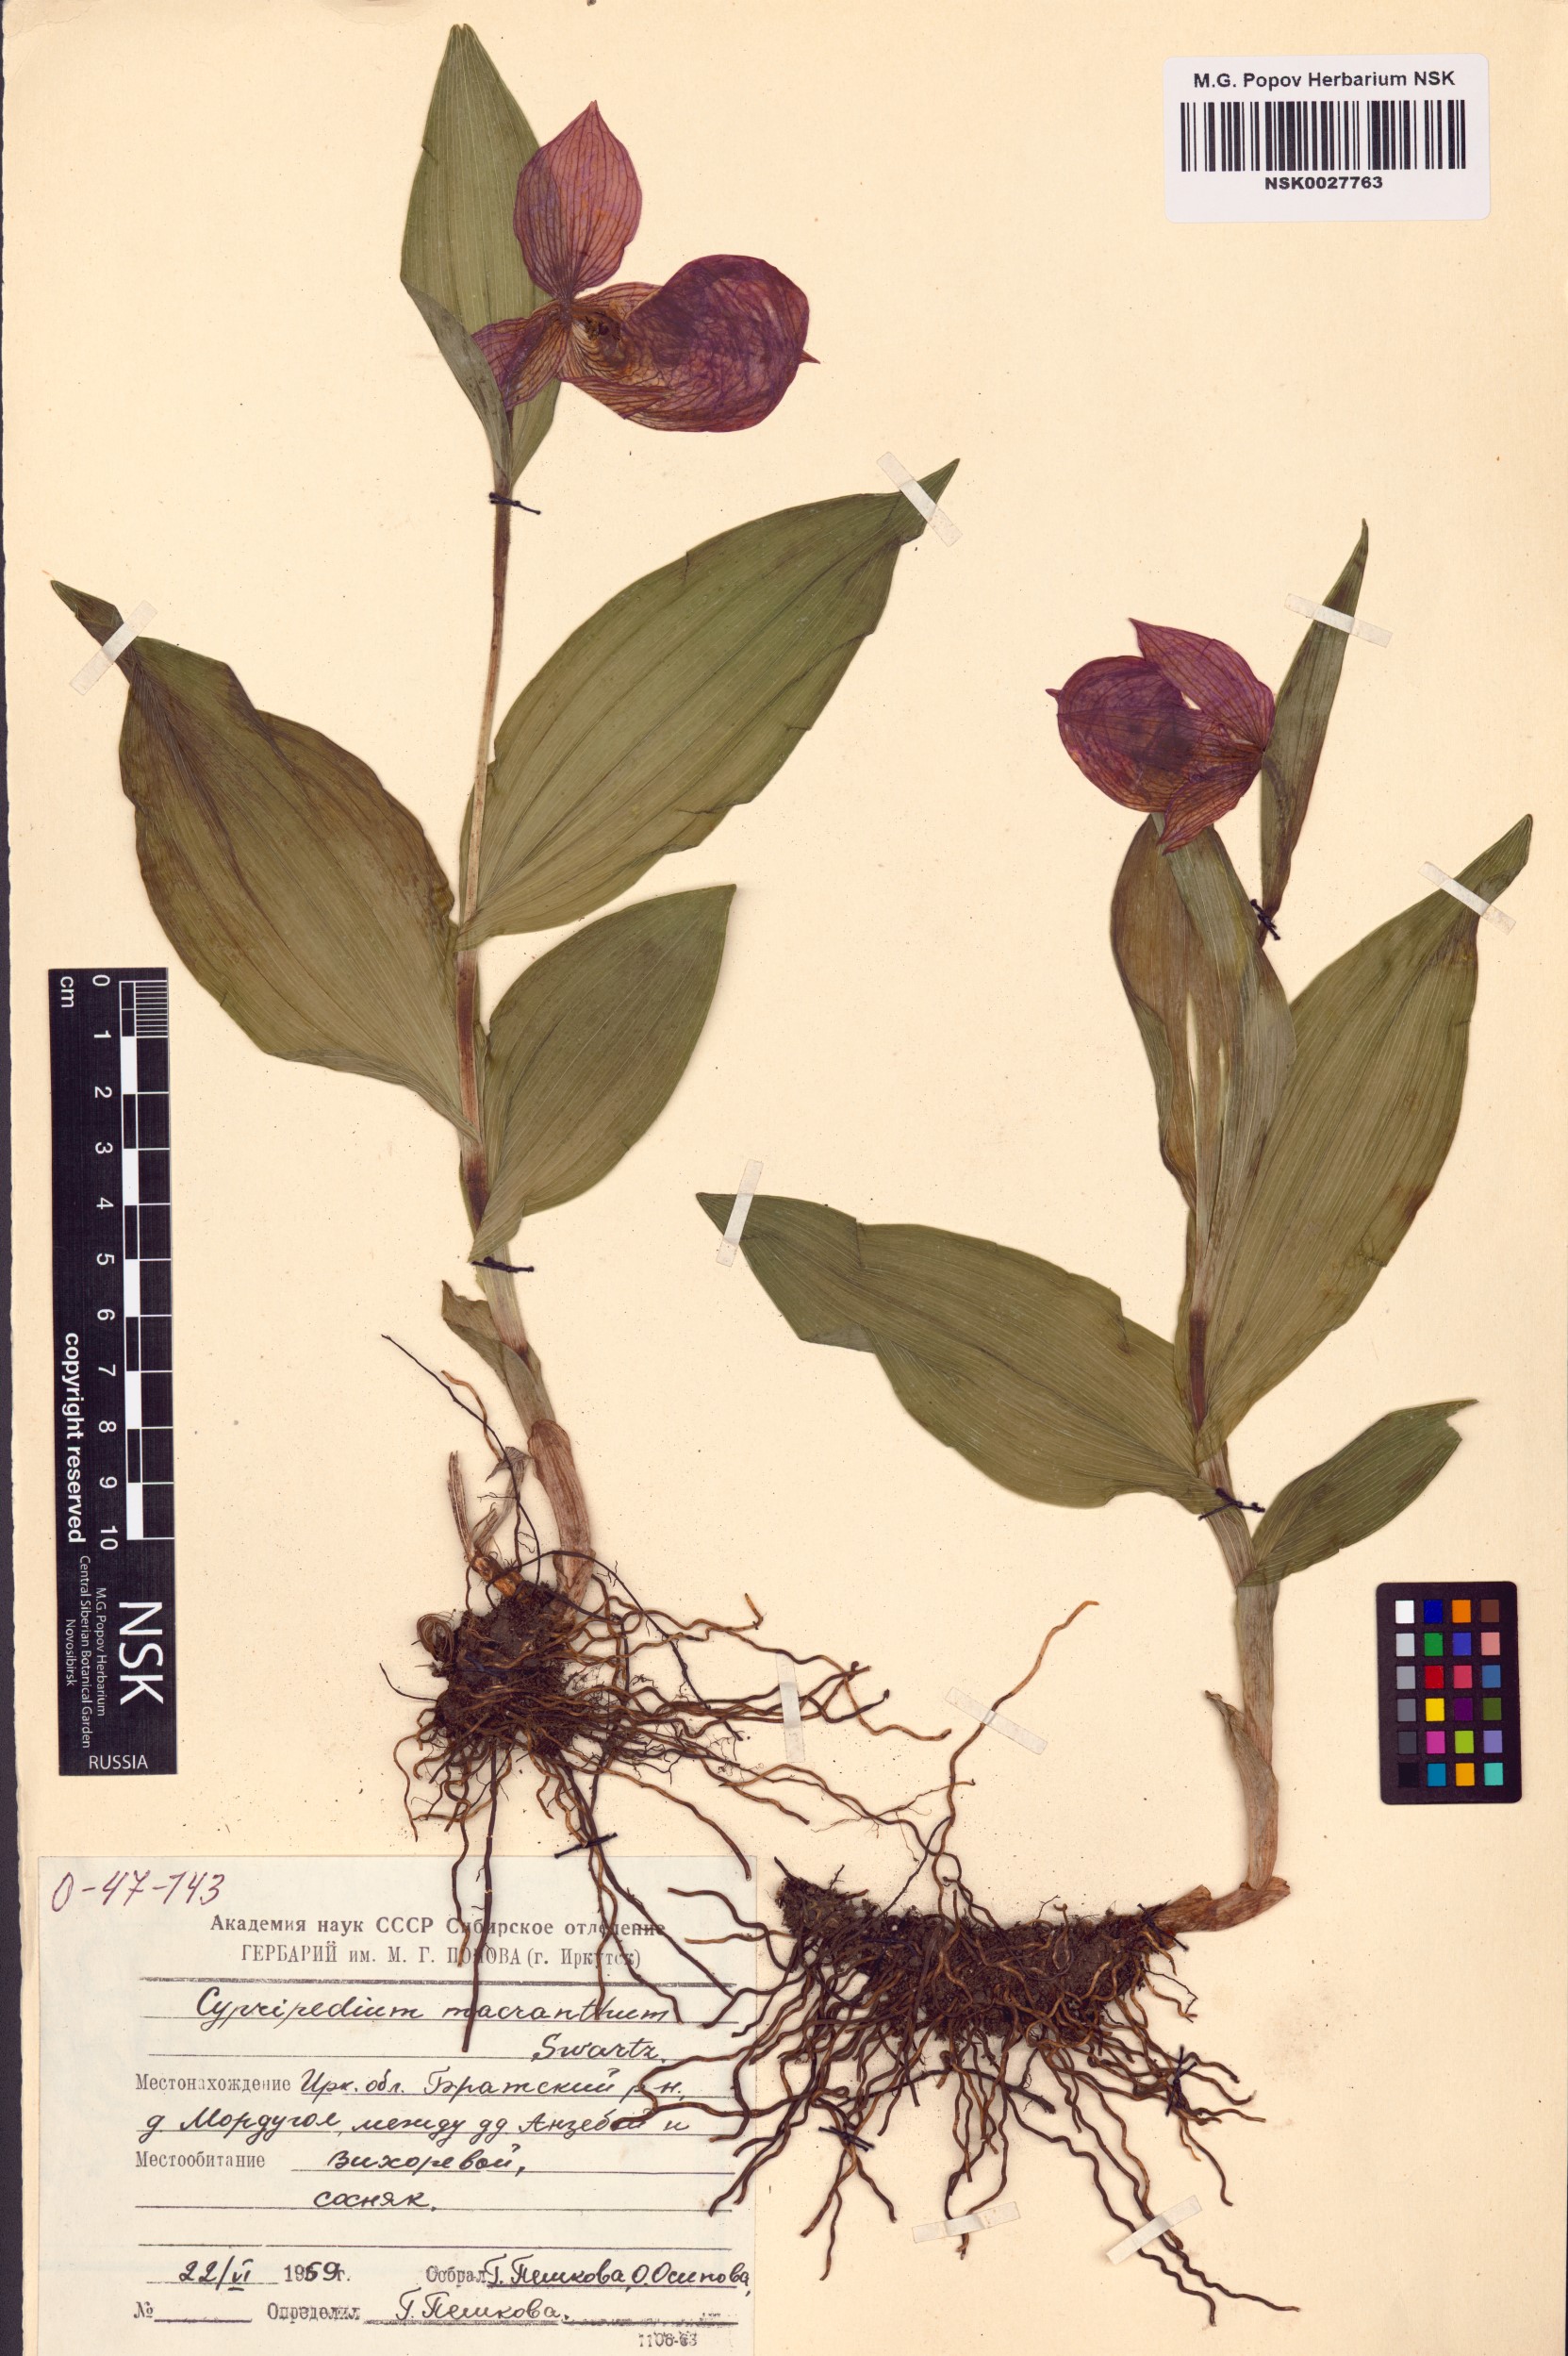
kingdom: Plantae
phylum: Tracheophyta
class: Liliopsida
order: Asparagales
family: Orchidaceae
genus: Cypripedium
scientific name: Cypripedium macranthos
